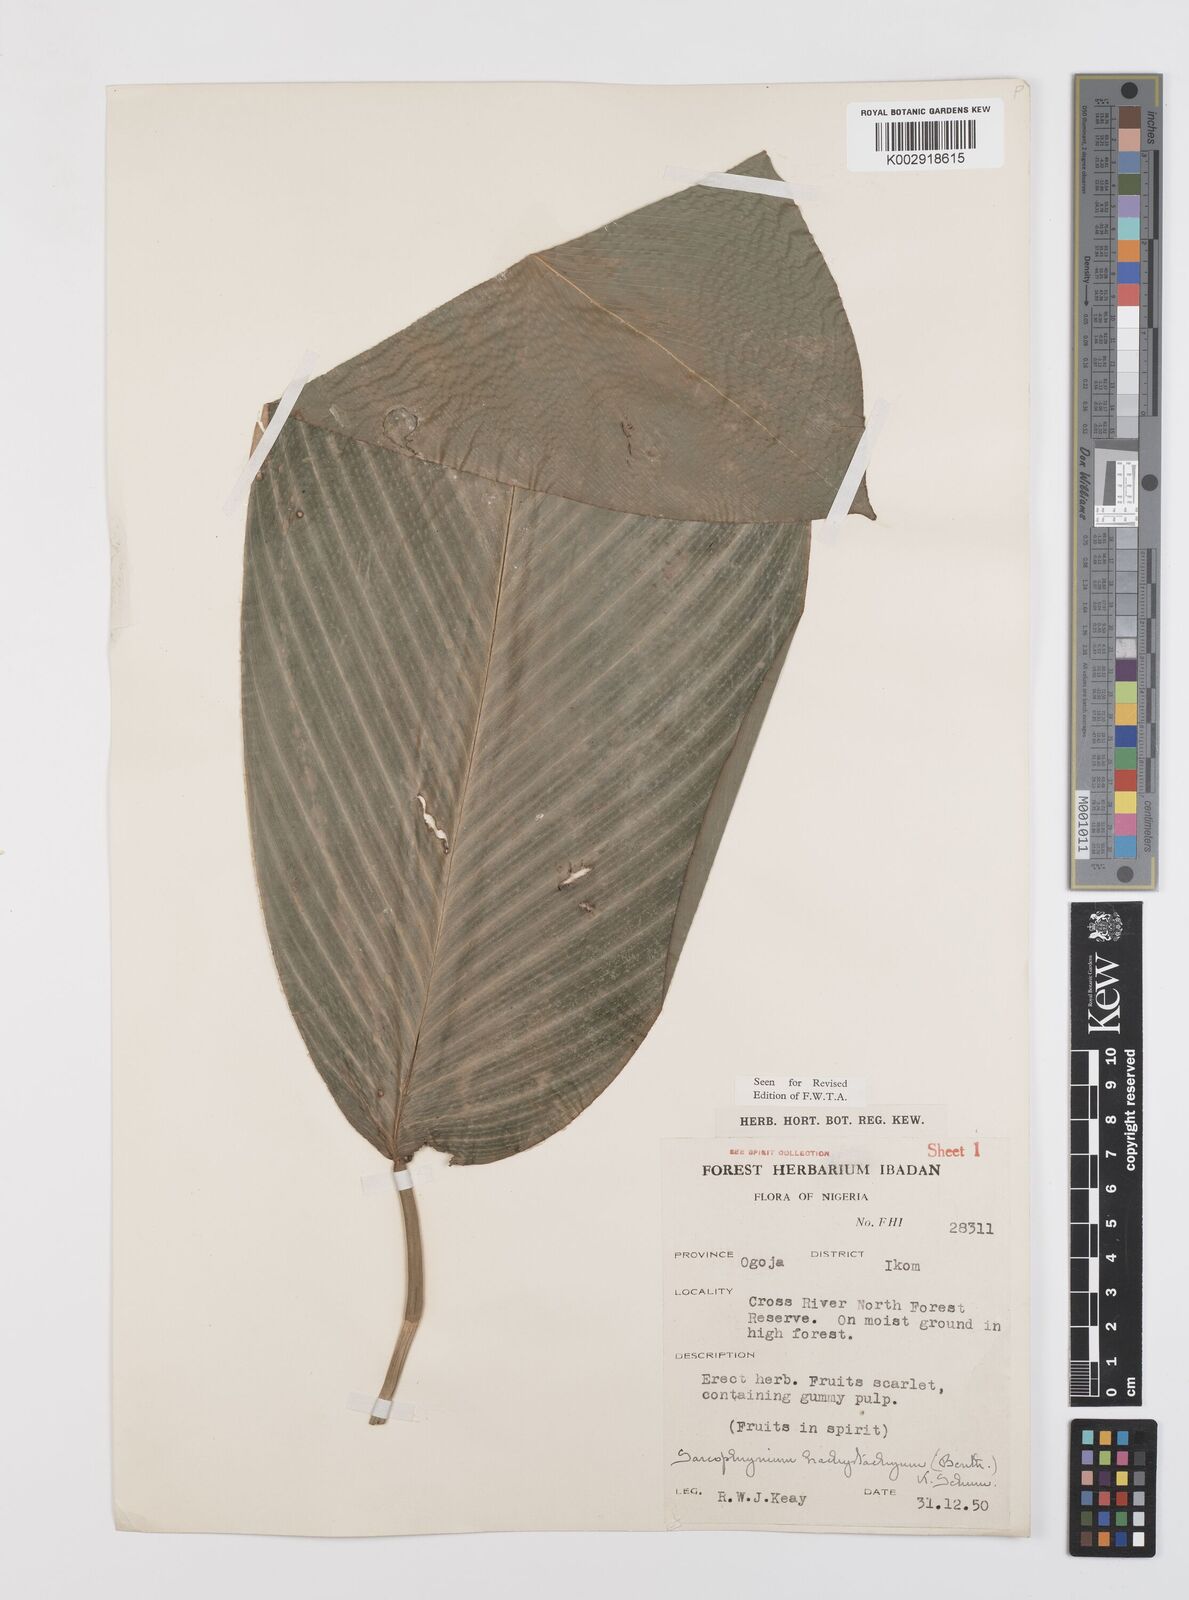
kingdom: Plantae
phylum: Tracheophyta
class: Liliopsida
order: Zingiberales
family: Marantaceae
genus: Sarcophrynium
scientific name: Sarcophrynium brachystachyum
